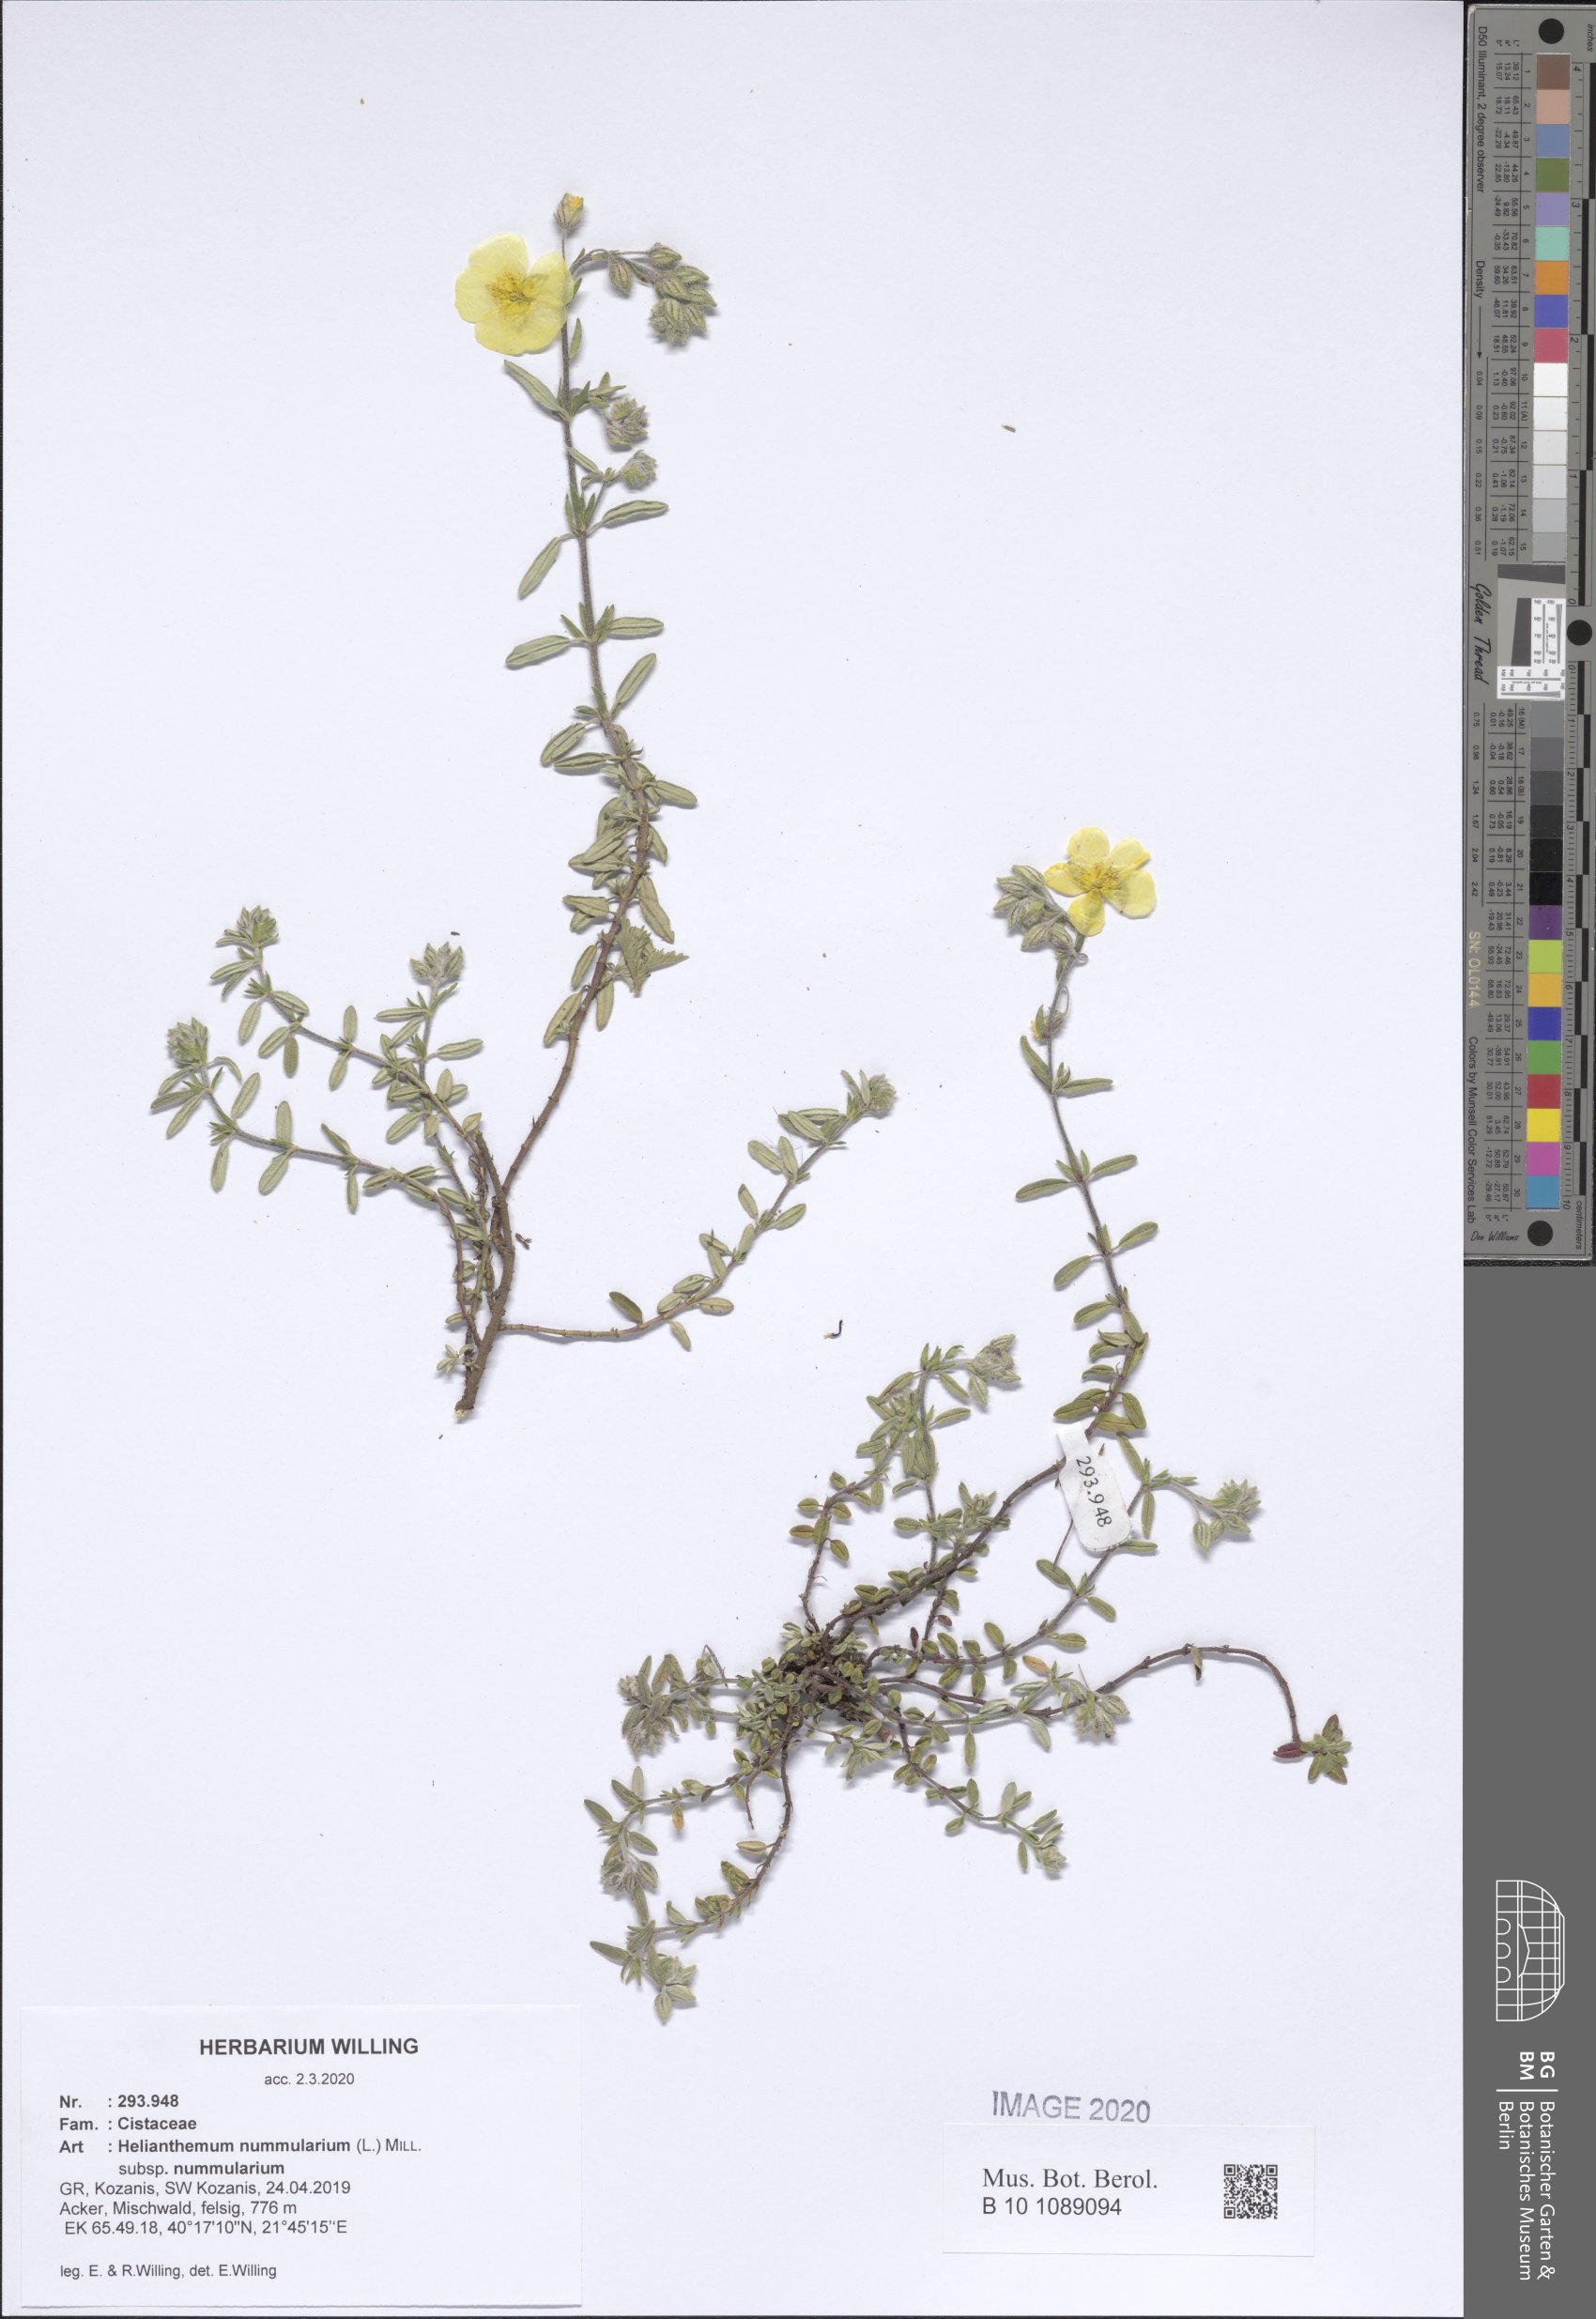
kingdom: Plantae
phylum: Tracheophyta
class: Magnoliopsida
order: Malvales
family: Cistaceae
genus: Helianthemum
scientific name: Helianthemum nummularium
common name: Common rock-rose
